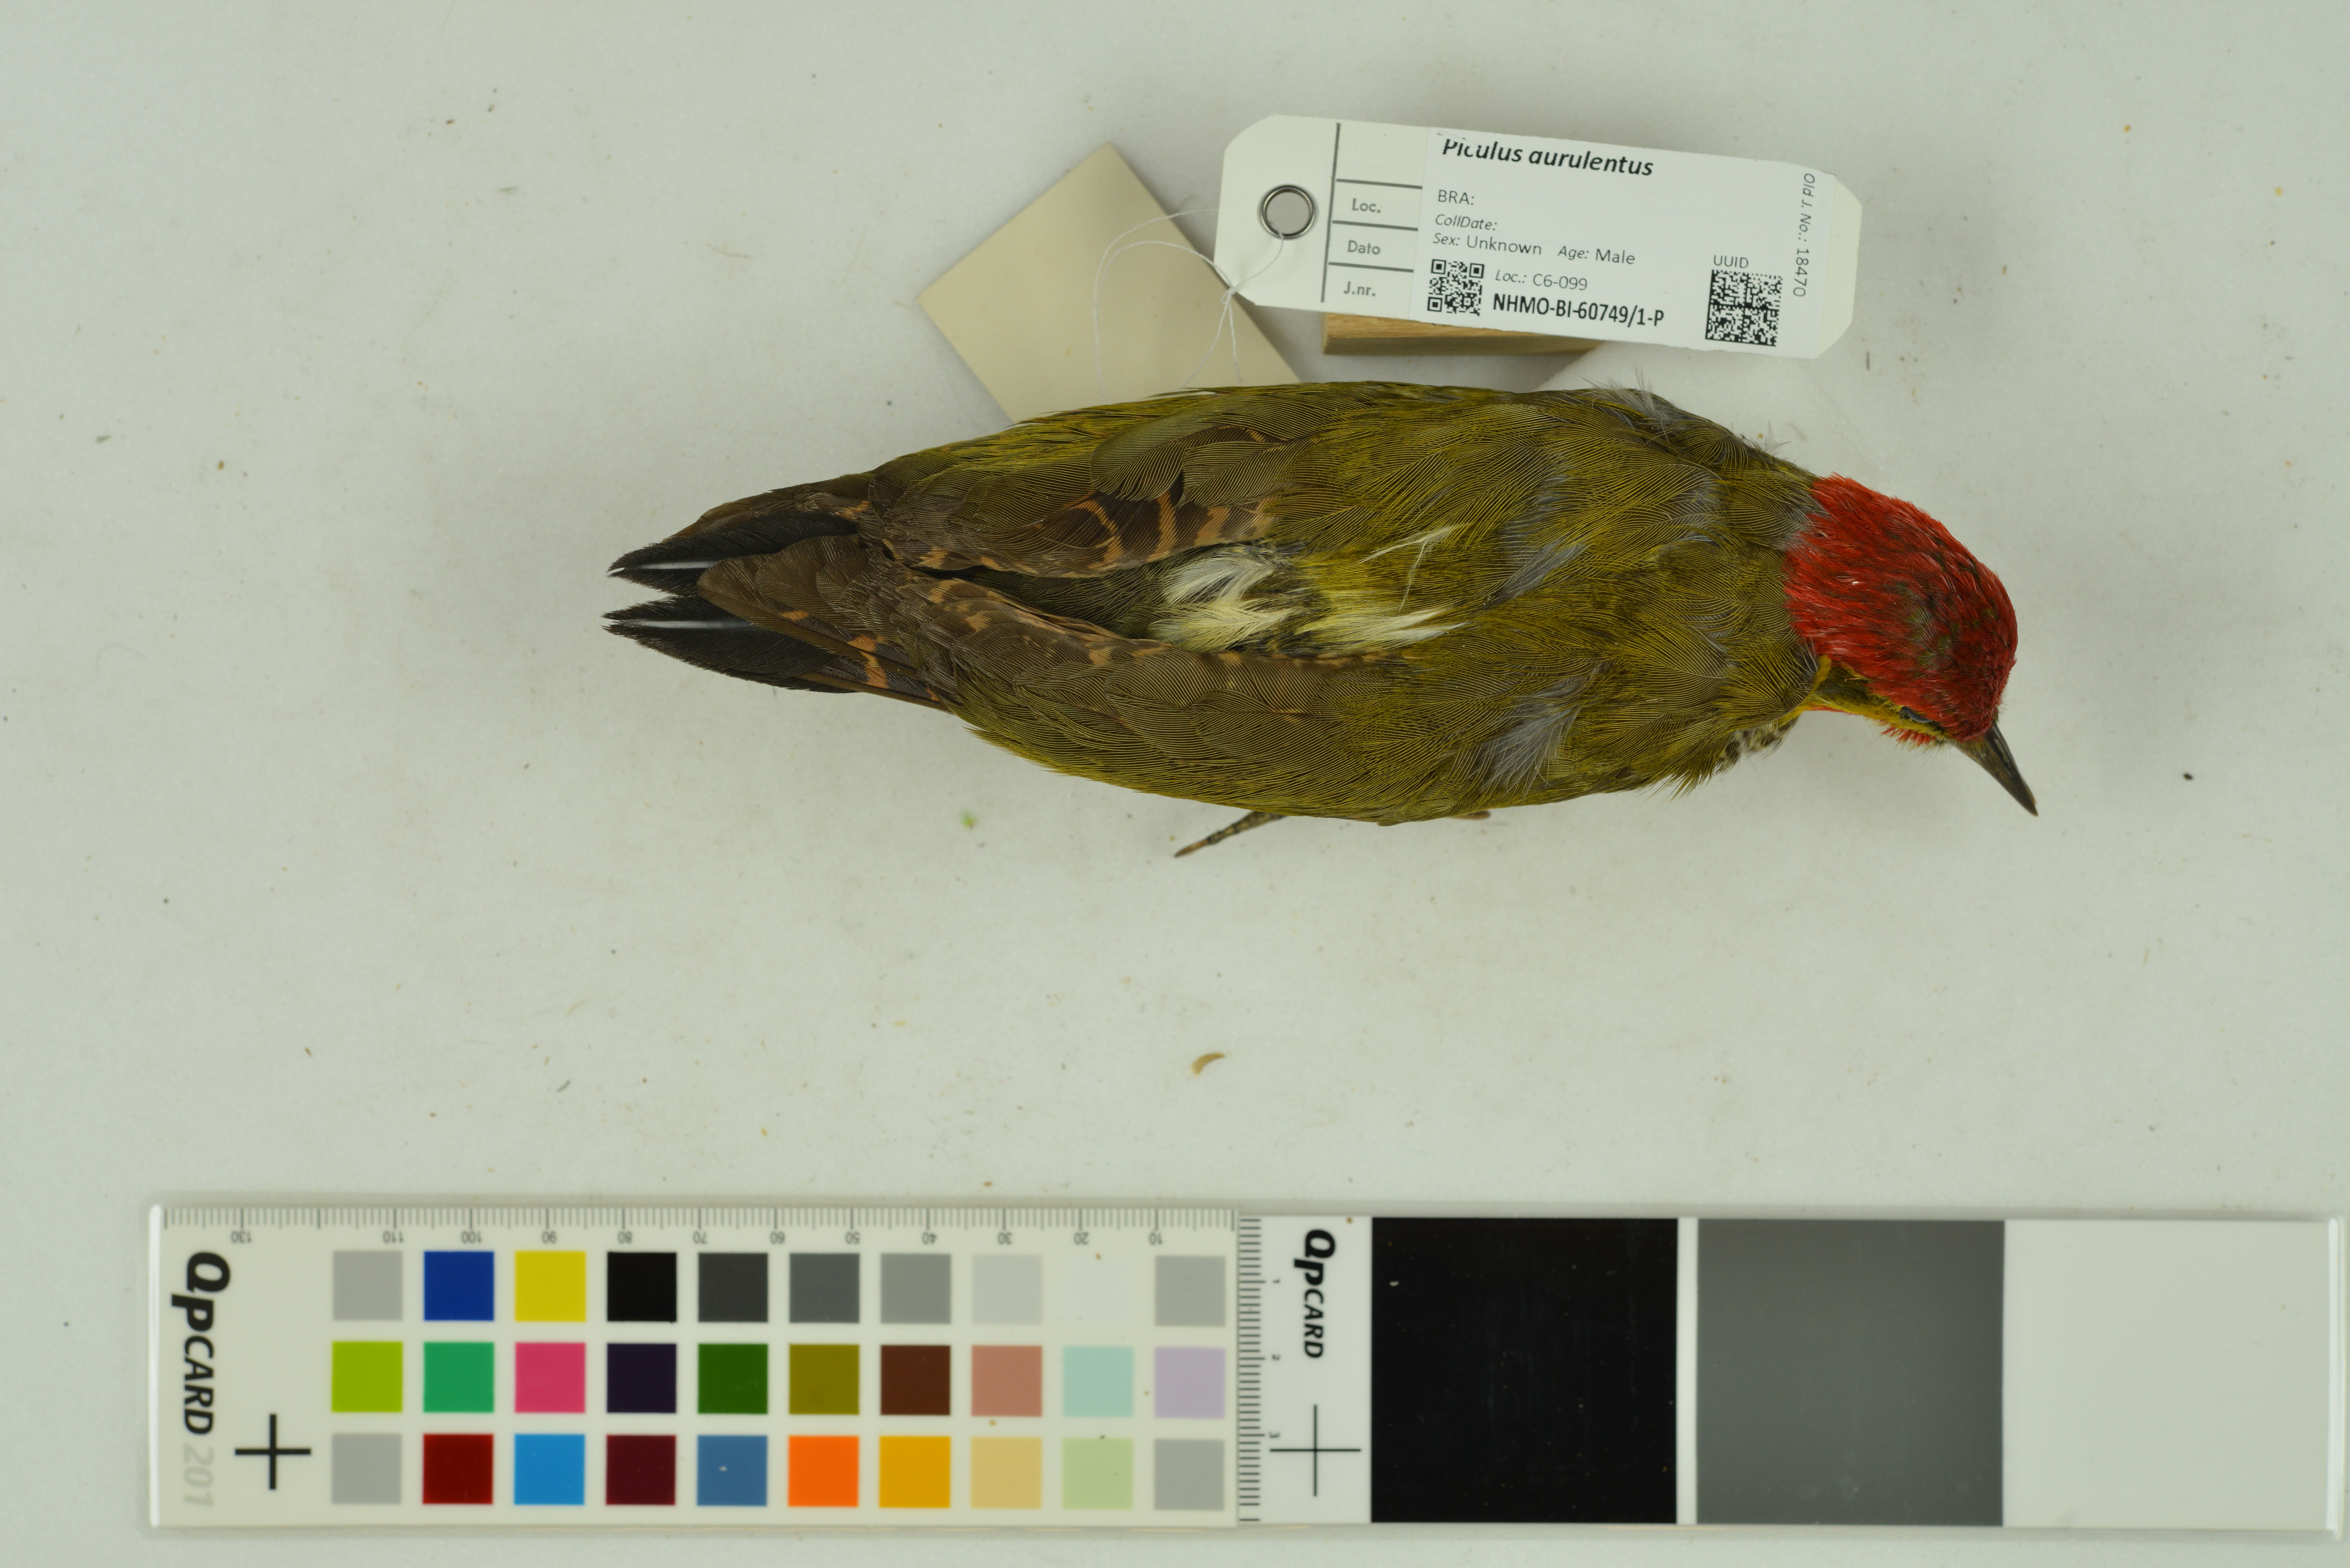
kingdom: Animalia
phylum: Chordata
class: Aves
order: Piciformes
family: Picidae
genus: Piculus
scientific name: Piculus aurulentus
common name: Yellow-browed woodpecker
